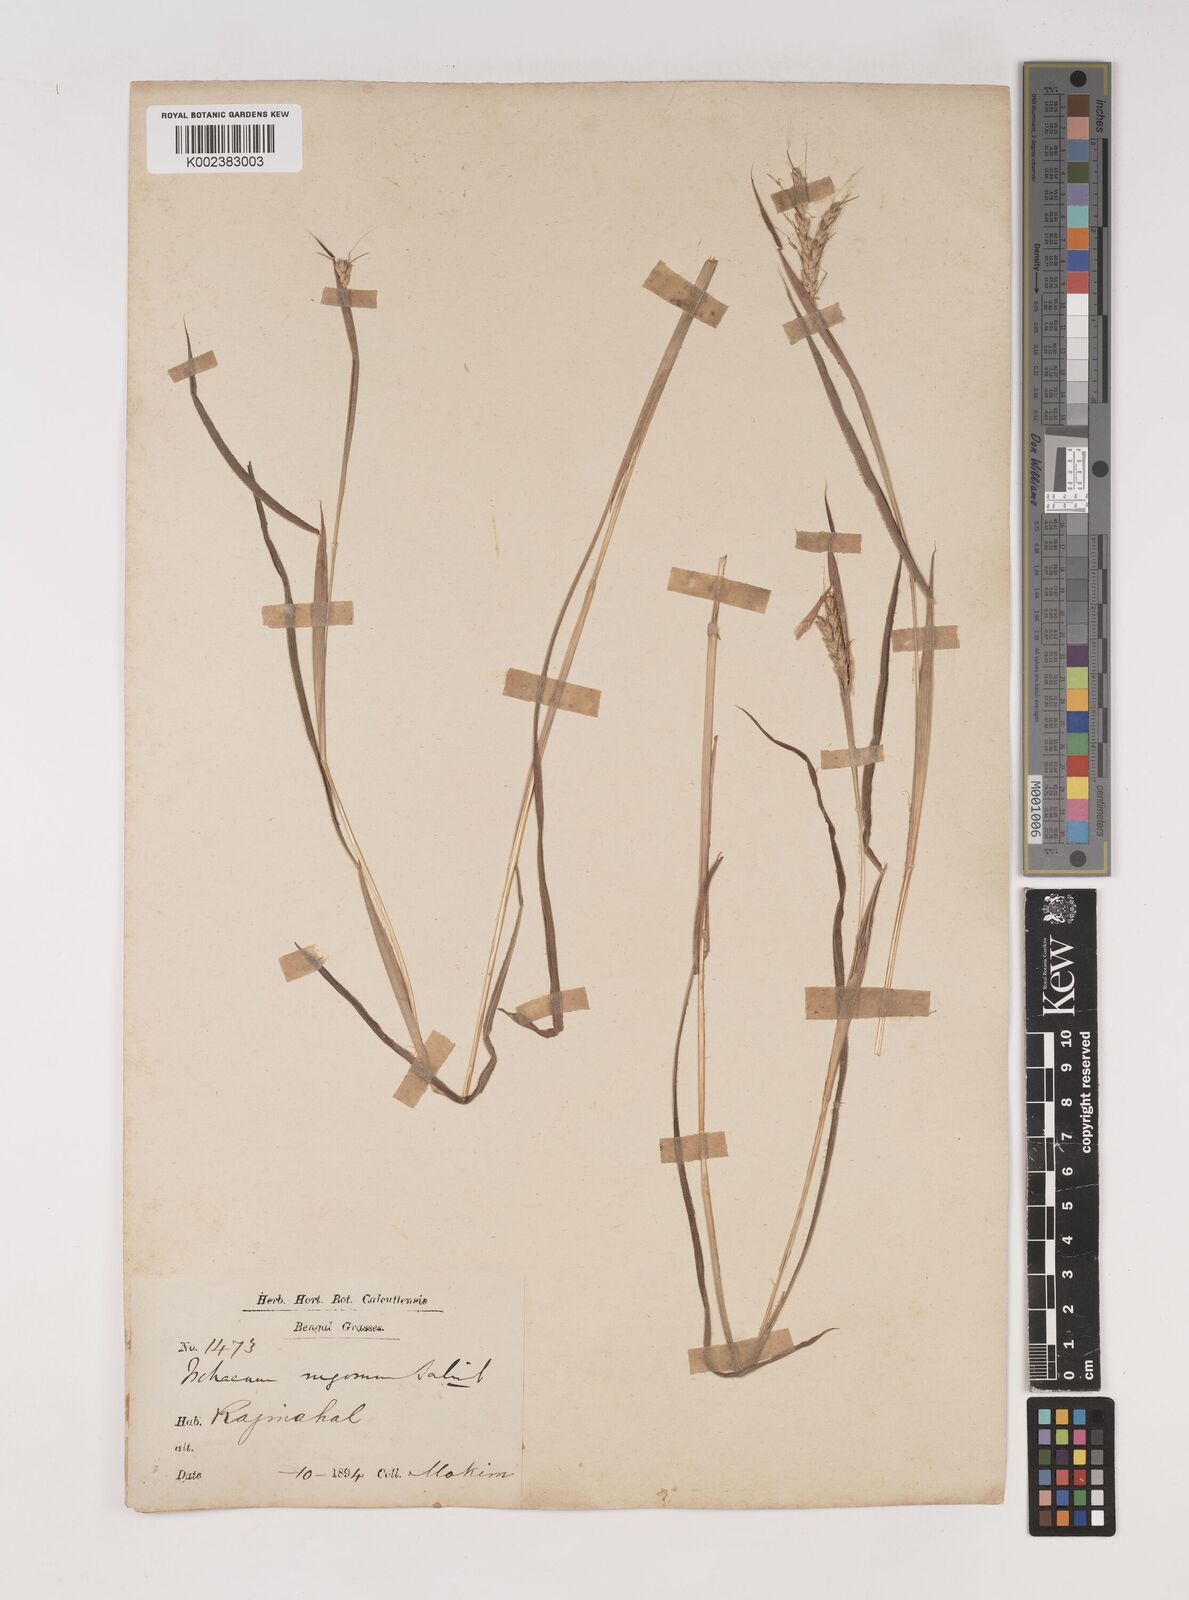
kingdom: Plantae
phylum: Tracheophyta
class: Liliopsida
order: Poales
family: Poaceae
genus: Ischaemum
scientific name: Ischaemum rugosum
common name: Saramatta grass
